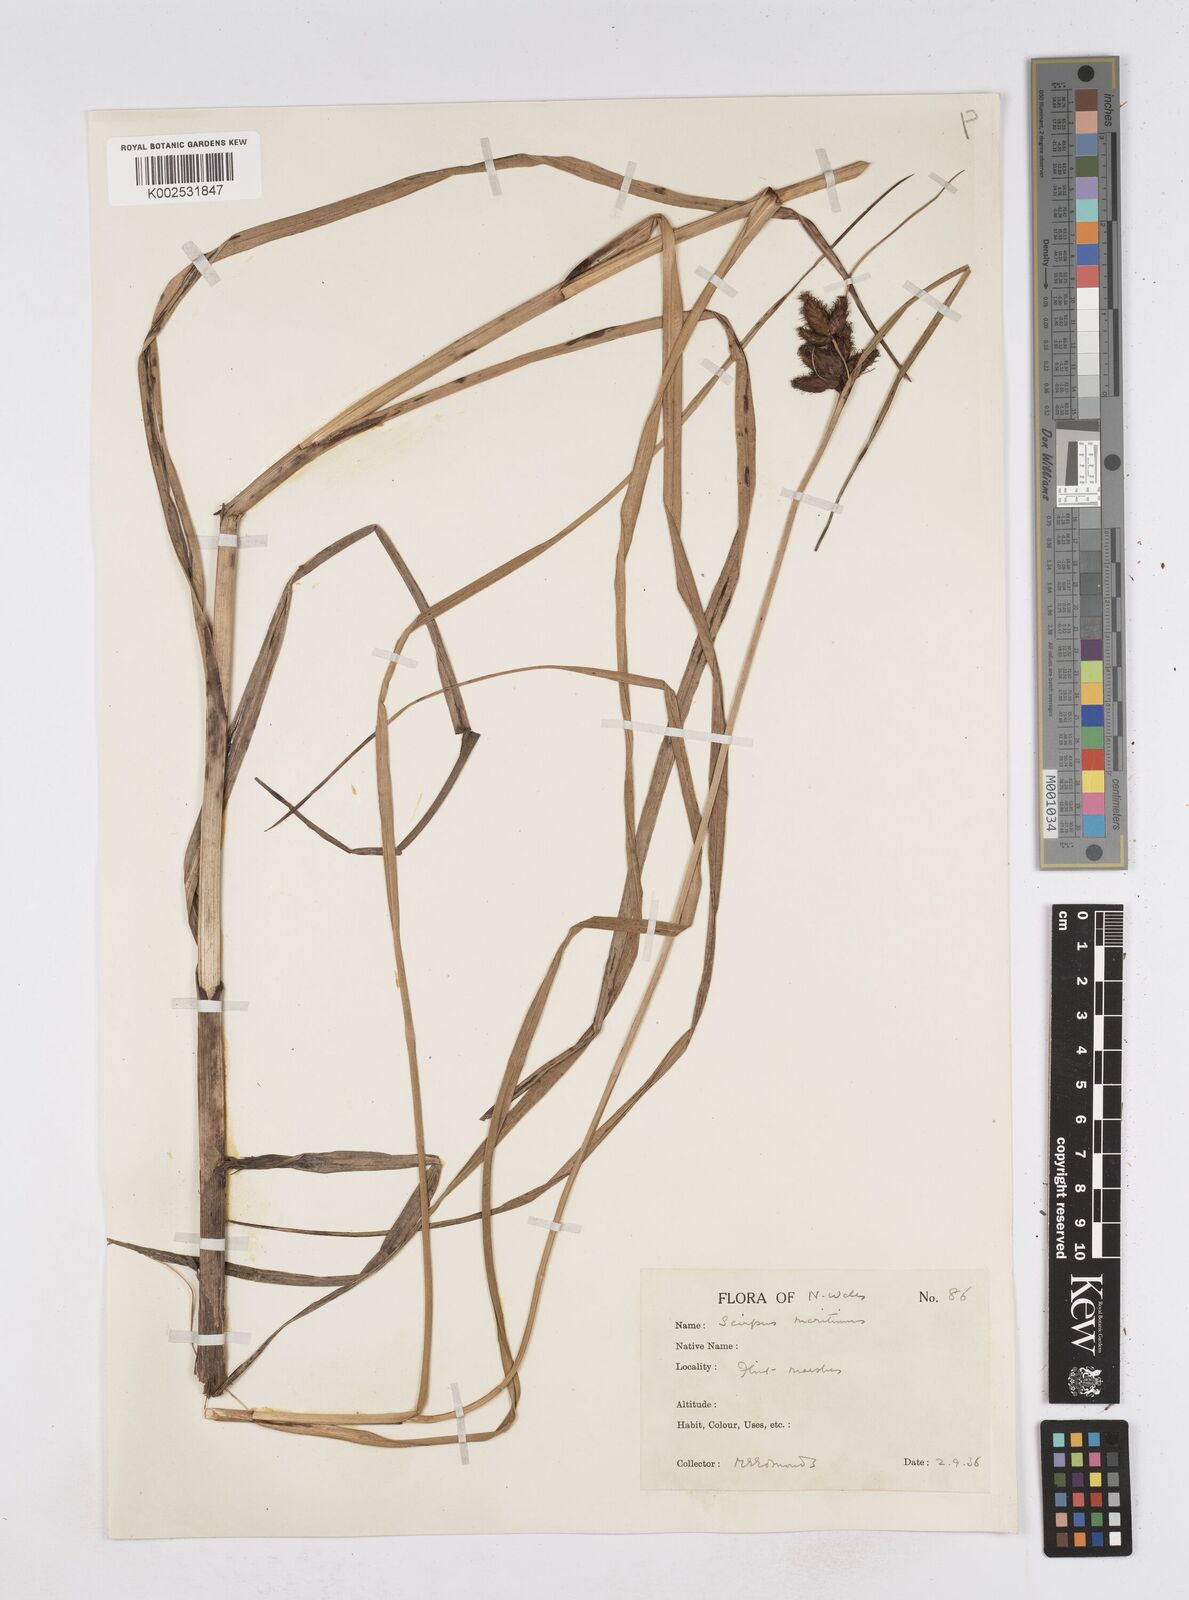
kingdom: Plantae
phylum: Tracheophyta
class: Liliopsida
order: Poales
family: Cyperaceae
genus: Bolboschoenus
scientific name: Bolboschoenus maritimus
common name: Sea club-rush
